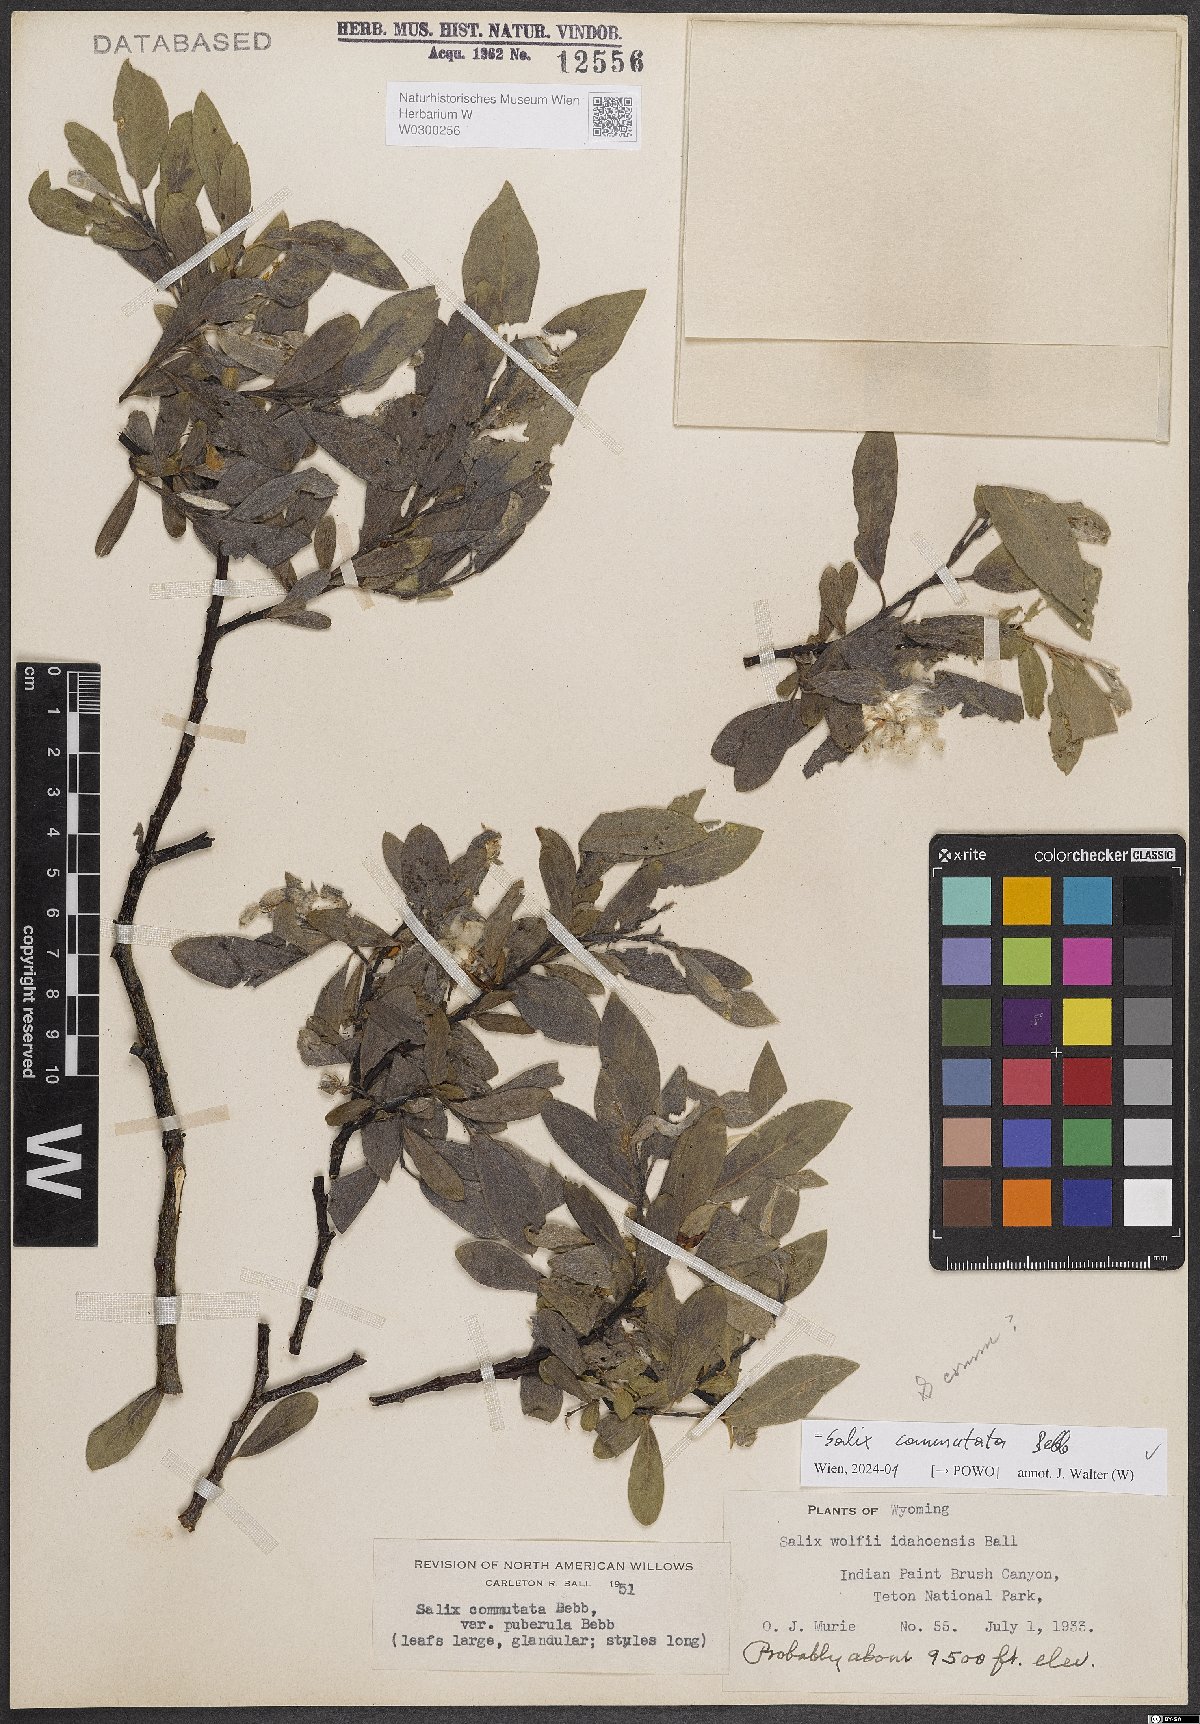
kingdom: Plantae
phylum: Tracheophyta
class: Magnoliopsida
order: Malpighiales
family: Salicaceae
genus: Salix
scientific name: Salix commutata
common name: Under-green willow
